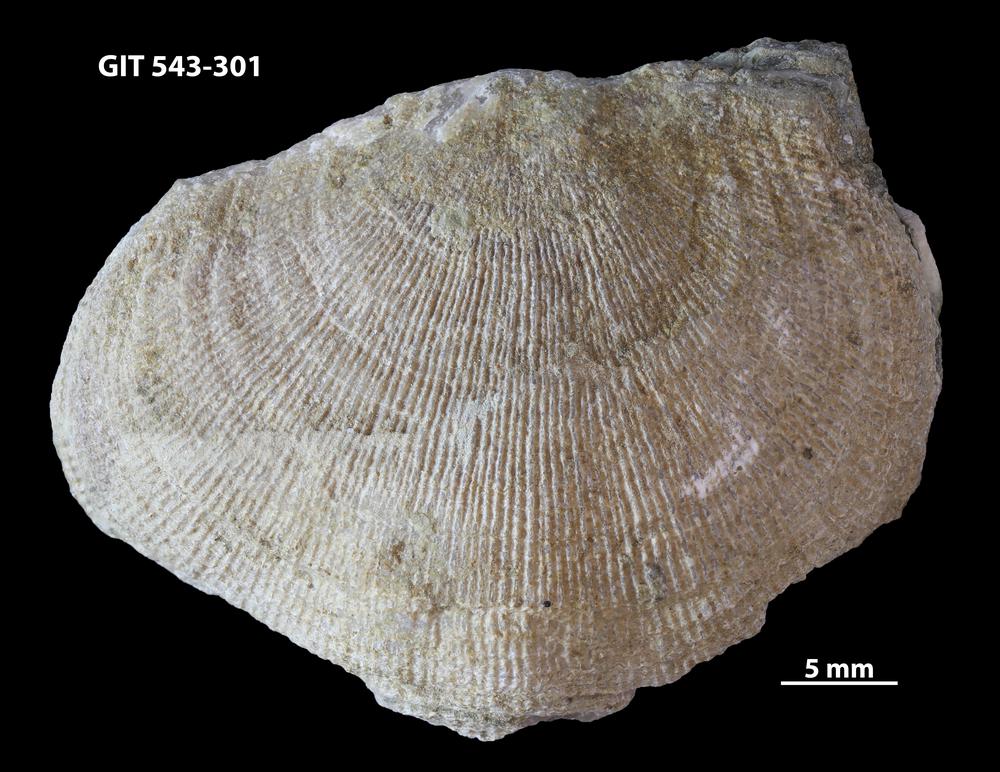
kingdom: Animalia
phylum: Brachiopoda
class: Rhynchonellata
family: Clitambonitidae
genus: Ilmarinia
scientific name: Ilmarinia dimorpha
